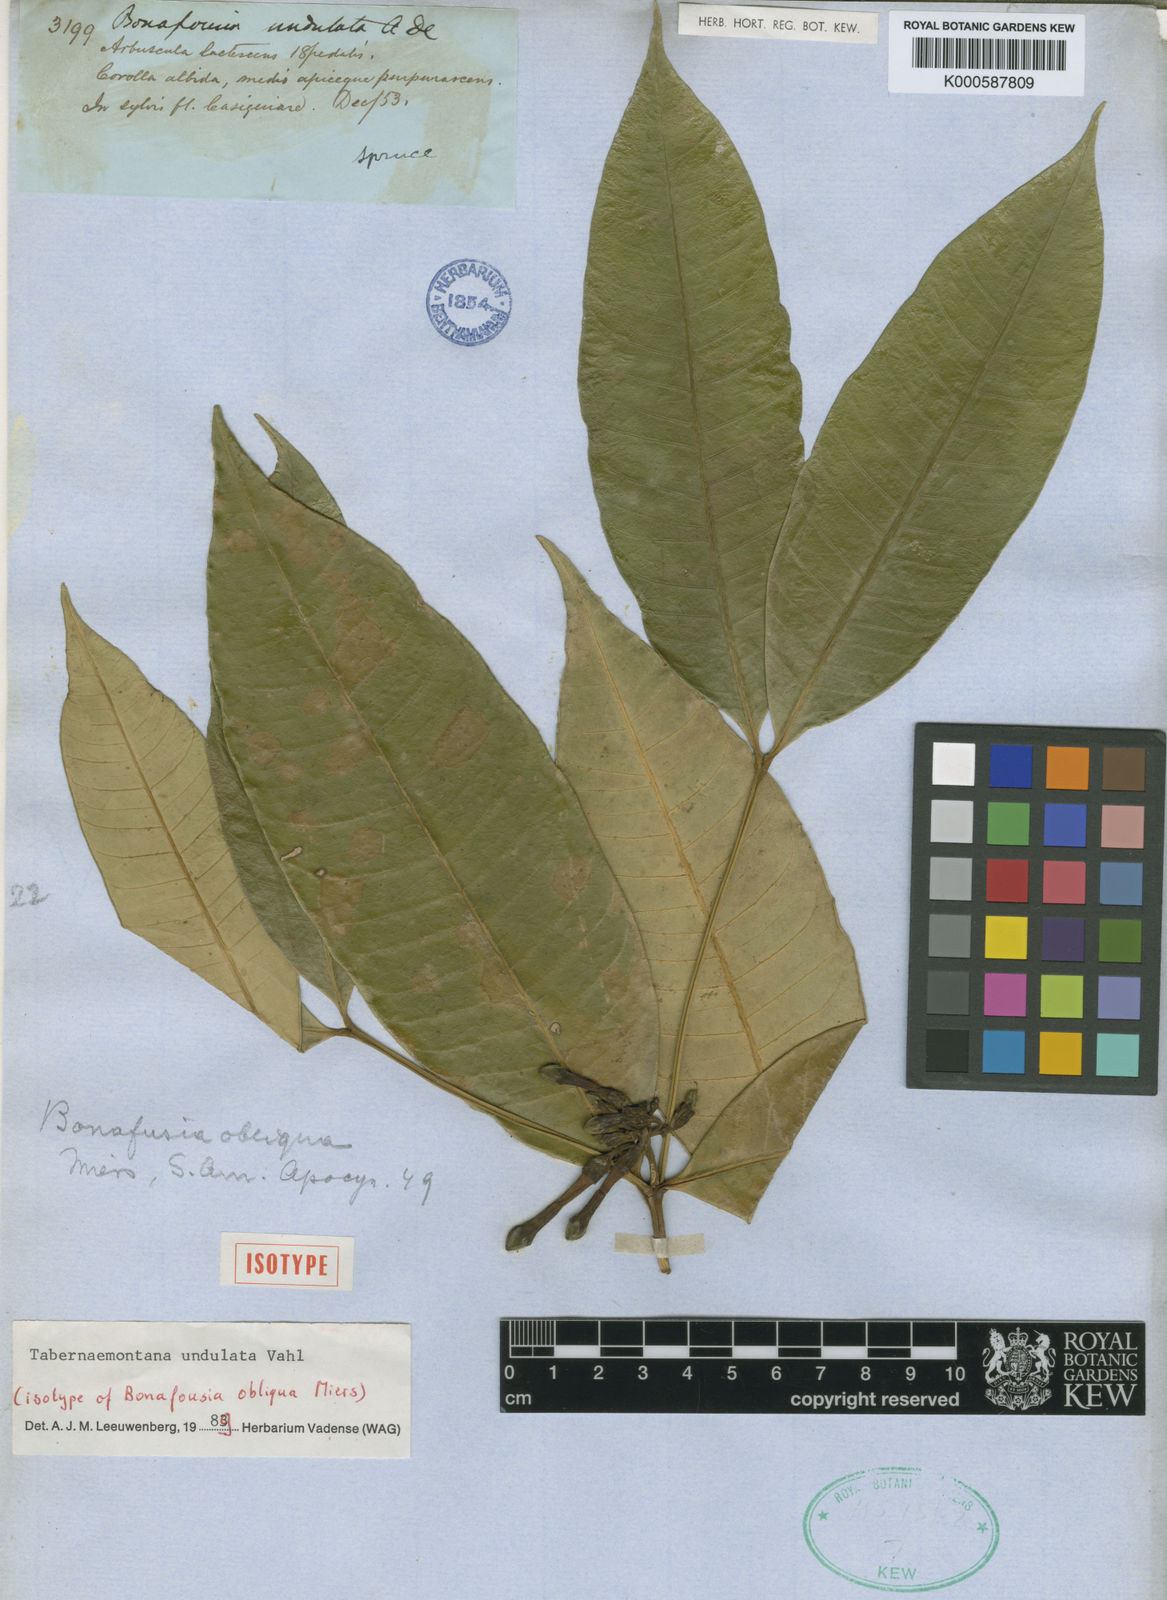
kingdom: Plantae
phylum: Tracheophyta
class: Magnoliopsida
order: Gentianales
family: Apocynaceae
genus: Tabernaemontana
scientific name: Tabernaemontana undulata
